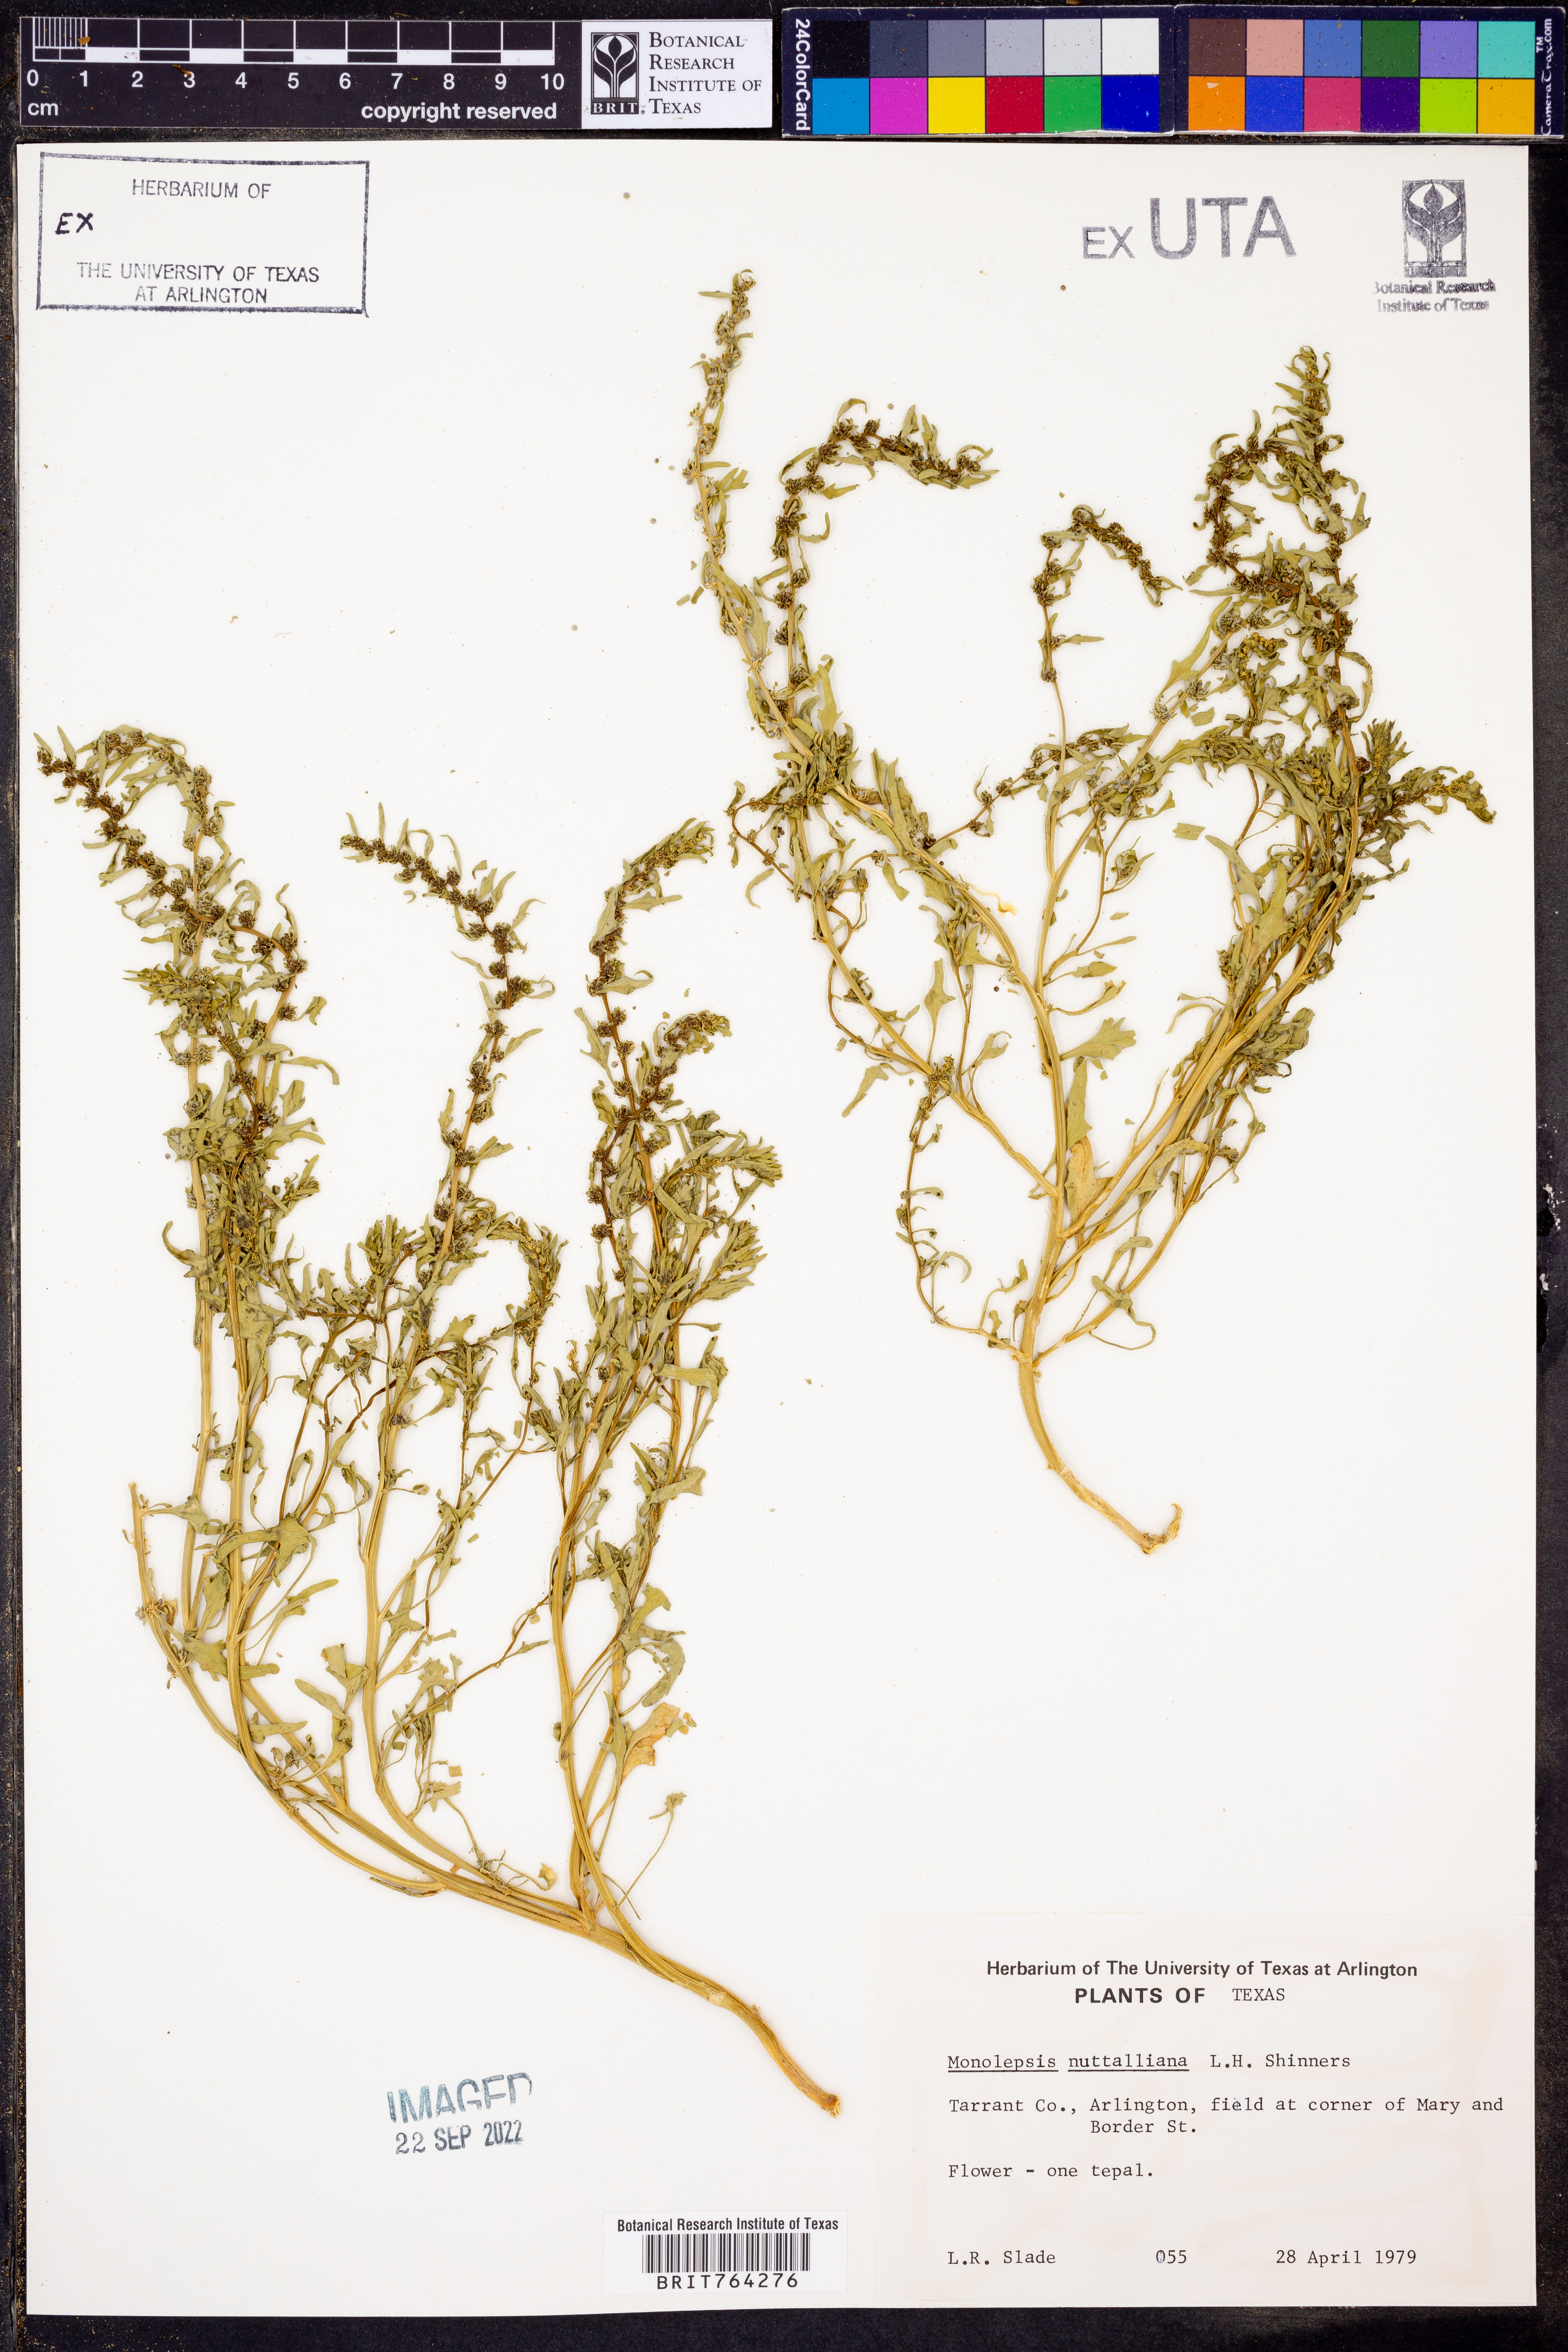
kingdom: Plantae
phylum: Tracheophyta
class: Magnoliopsida
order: Caryophyllales
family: Amaranthaceae
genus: Blitum
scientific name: Blitum nuttallianum
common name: Poverty-weed
